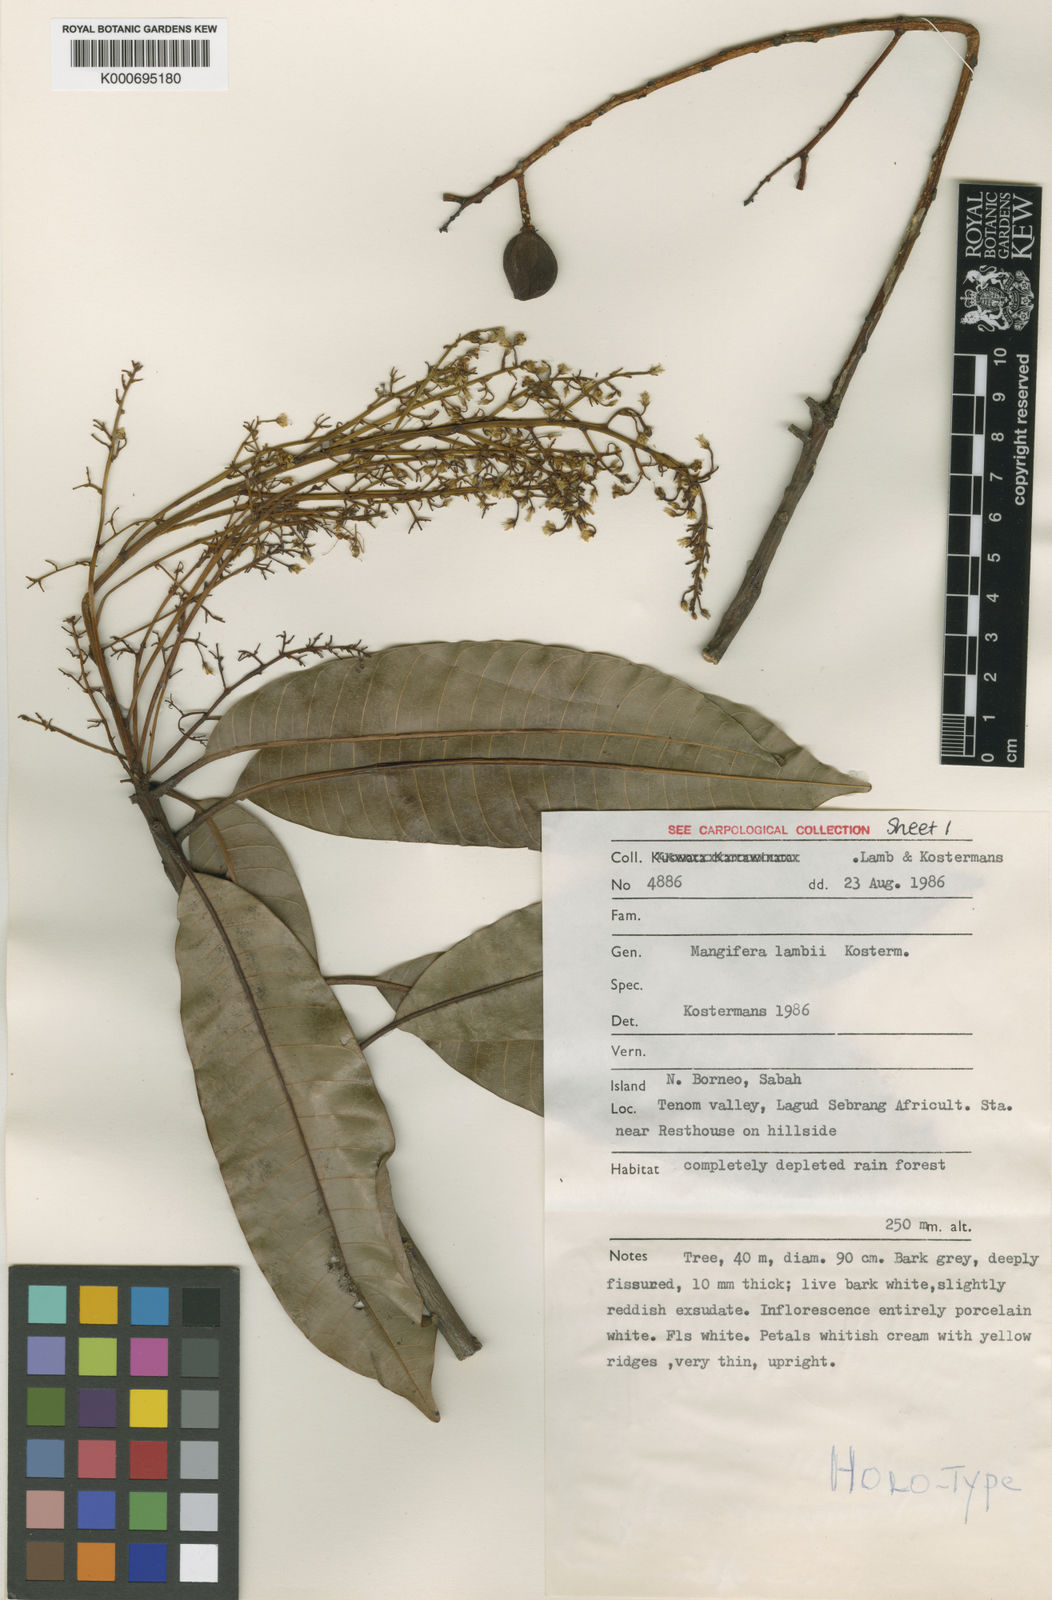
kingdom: Plantae
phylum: Tracheophyta
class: Magnoliopsida
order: Sapindales
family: Anacardiaceae
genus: Mangifera
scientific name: Mangifera
